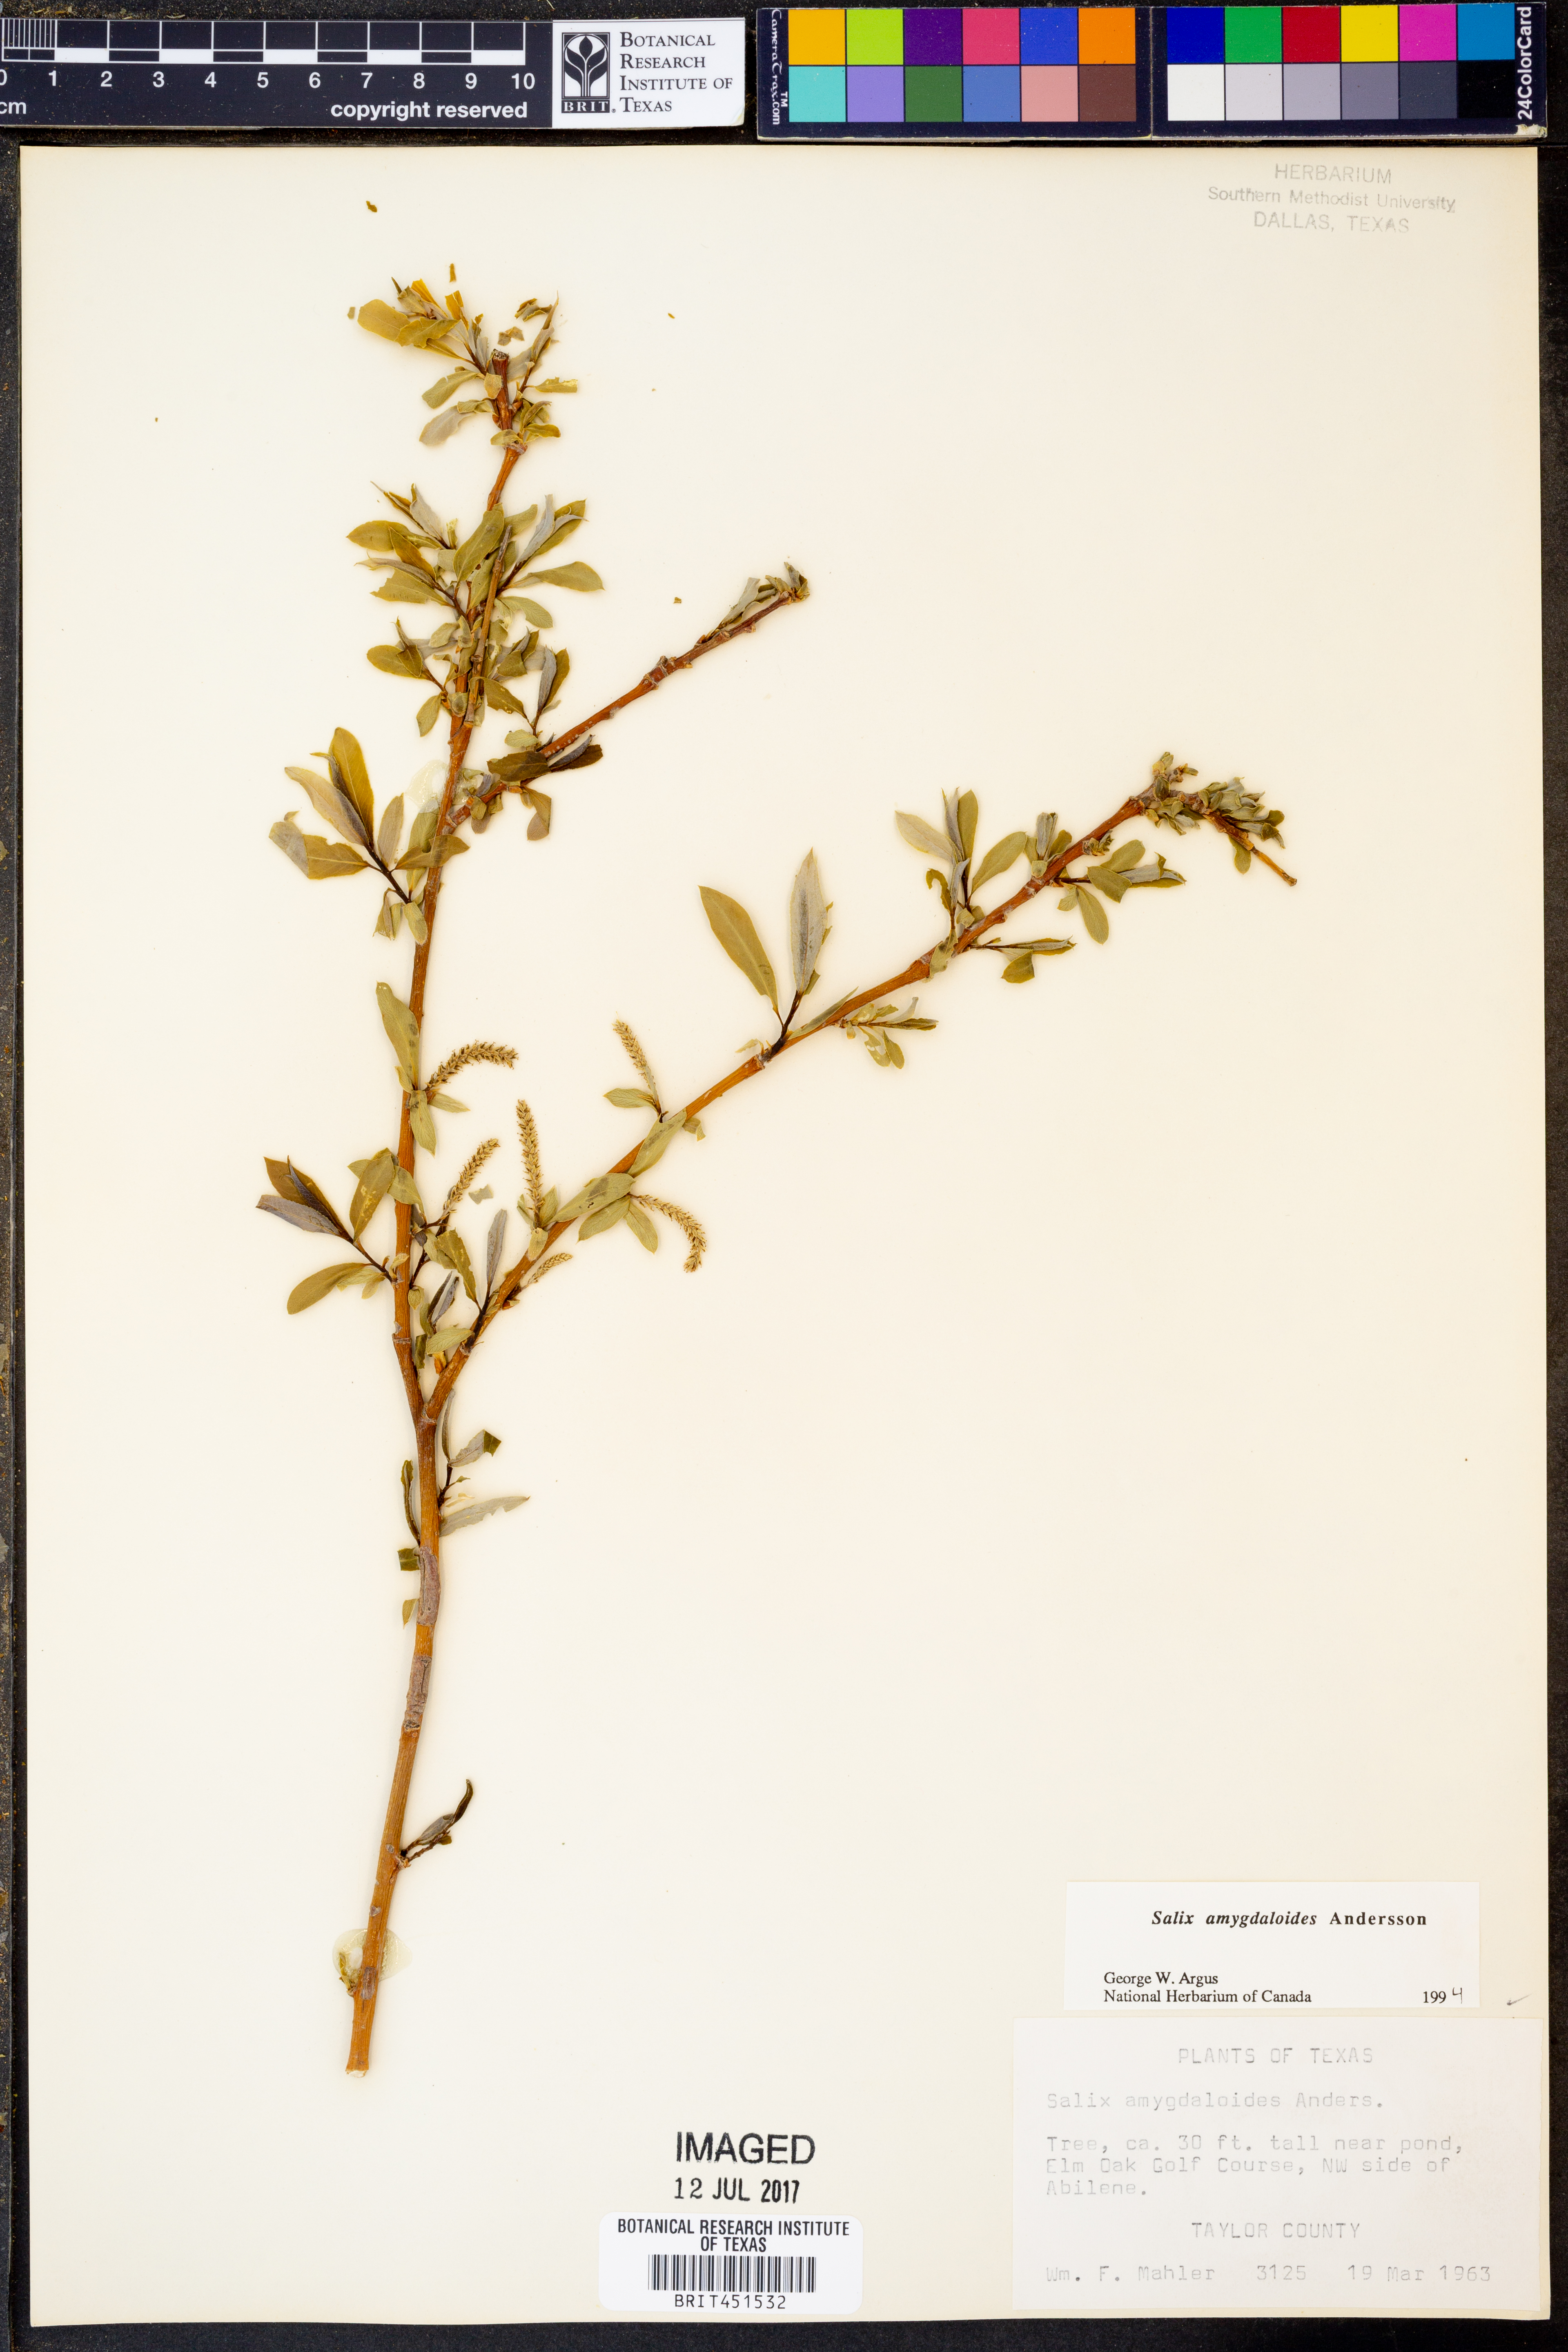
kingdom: Plantae
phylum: Tracheophyta
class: Magnoliopsida
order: Malpighiales
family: Salicaceae
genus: Salix
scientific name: Salix amygdaloides
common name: Peach leaf willow
